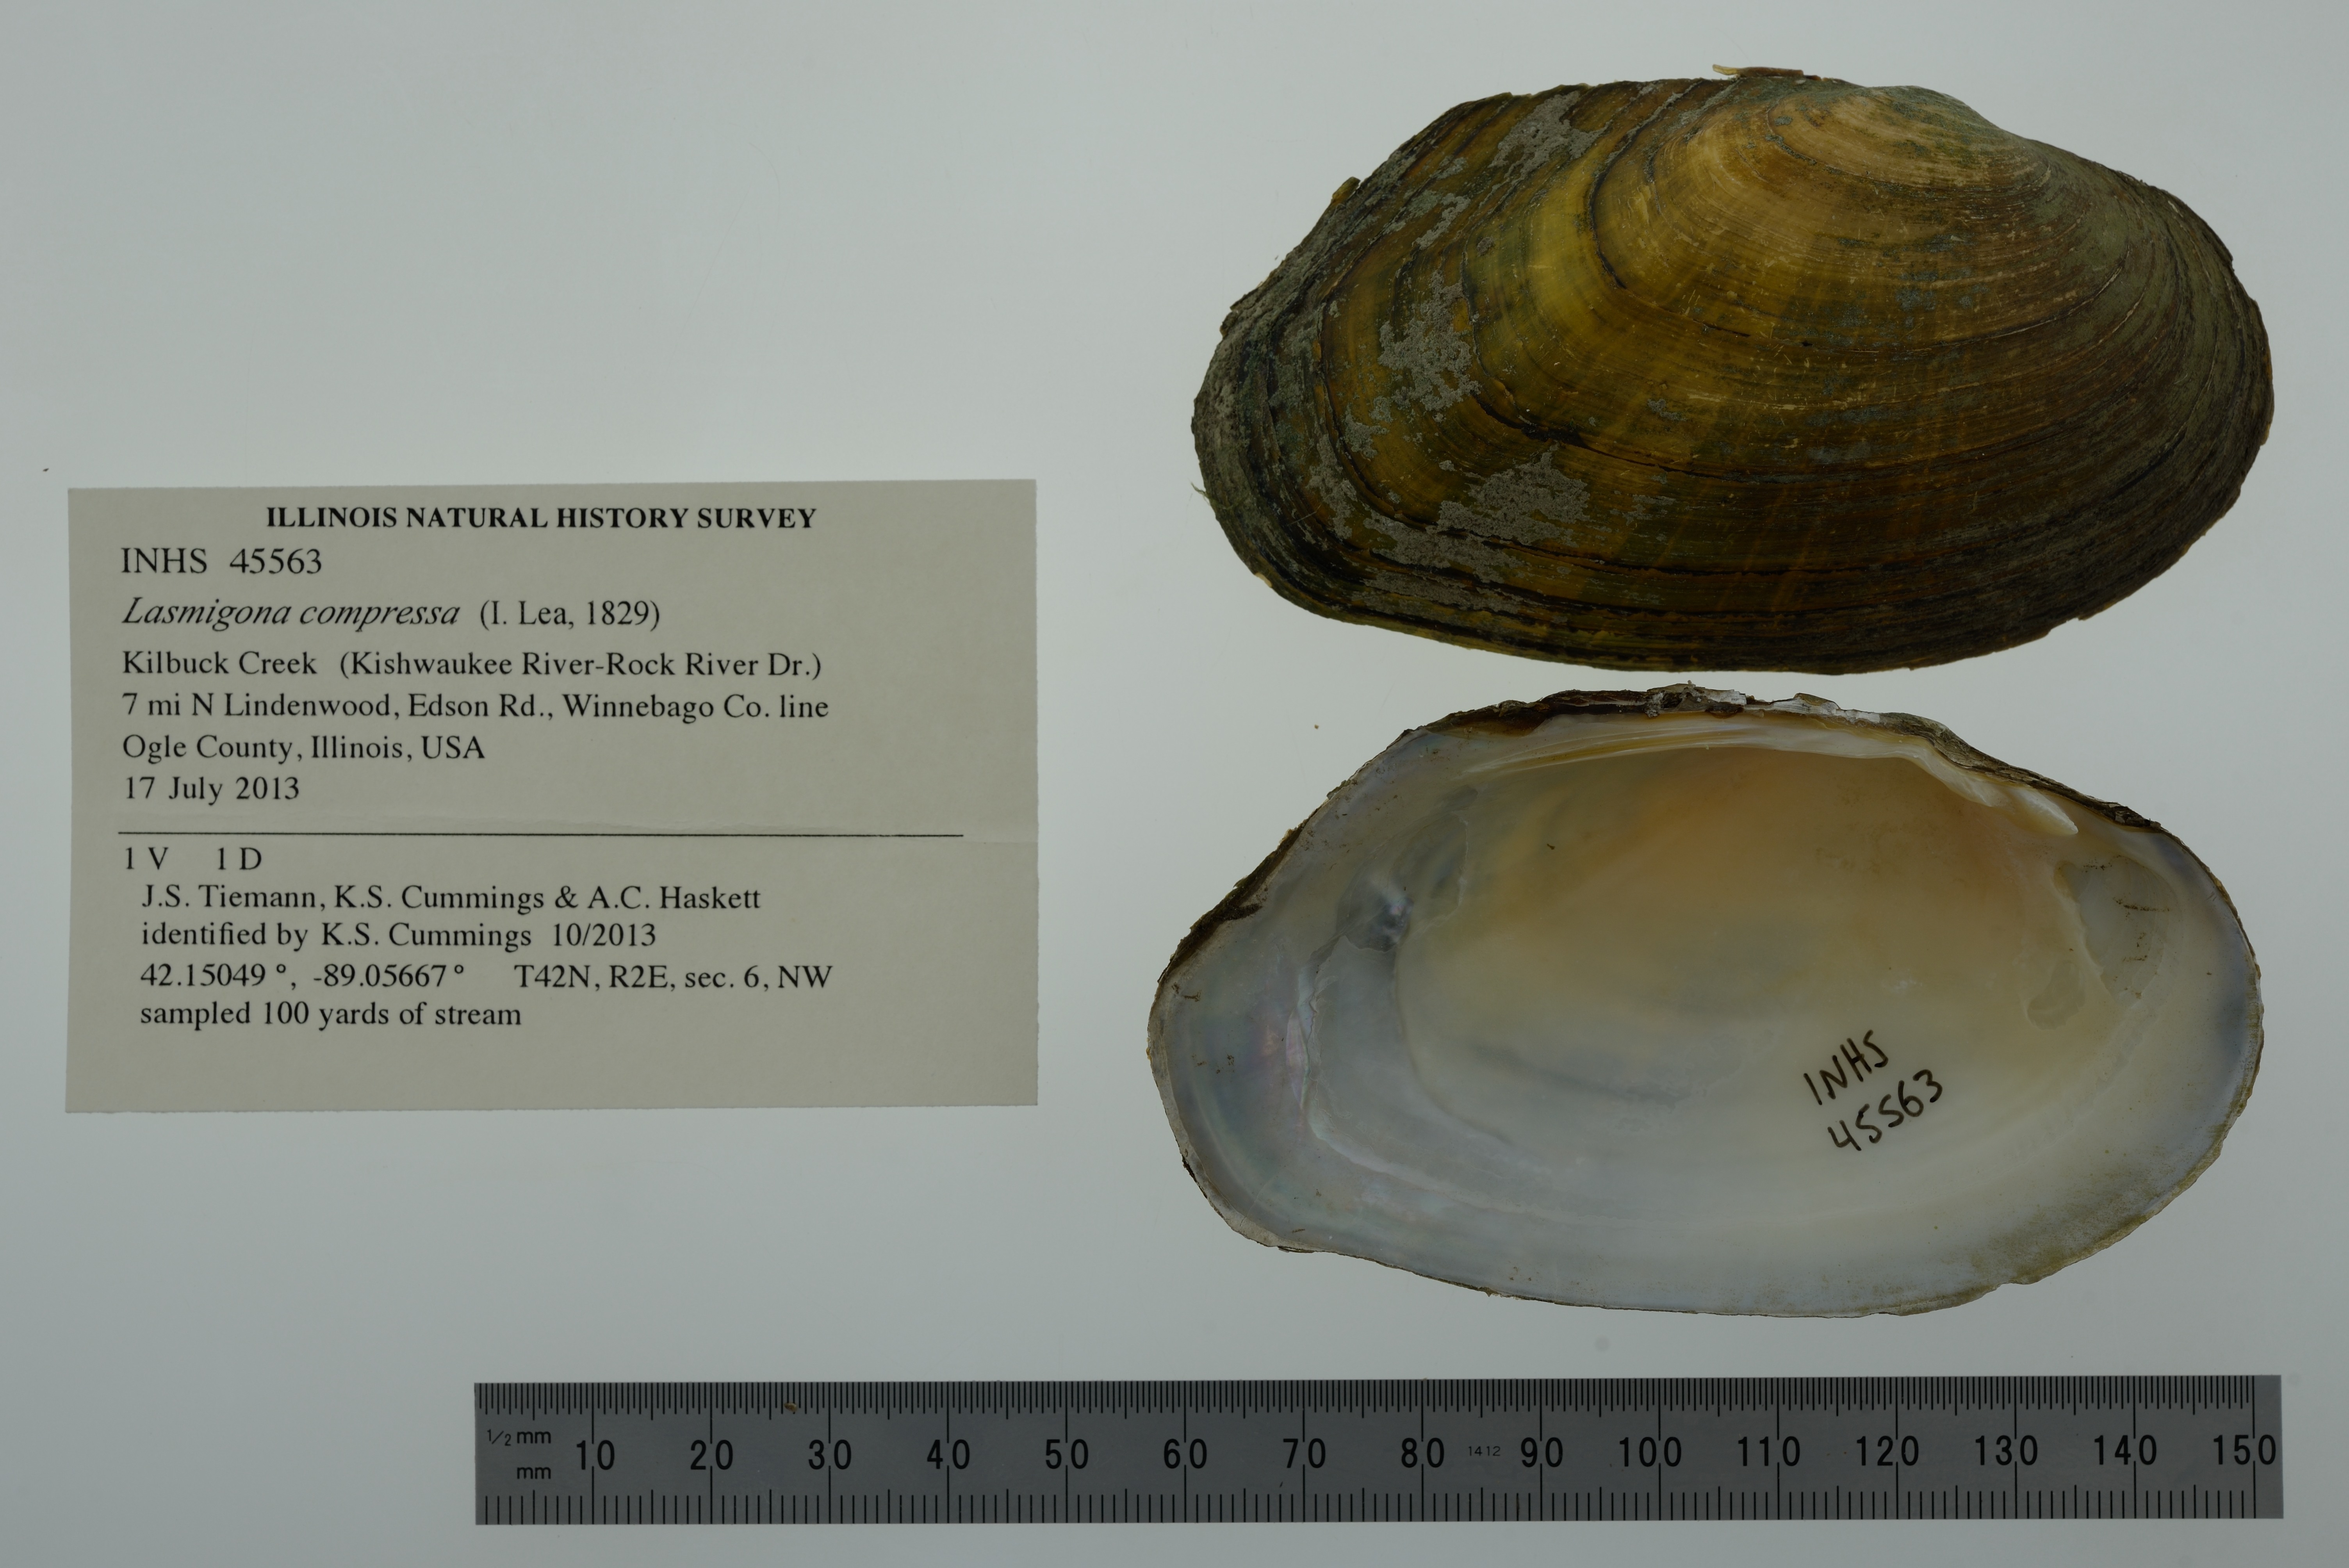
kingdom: Animalia
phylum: Mollusca
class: Bivalvia
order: Unionida
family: Unionidae
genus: Lasmigona
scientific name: Lasmigona compressa
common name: Creek heelsplitter
